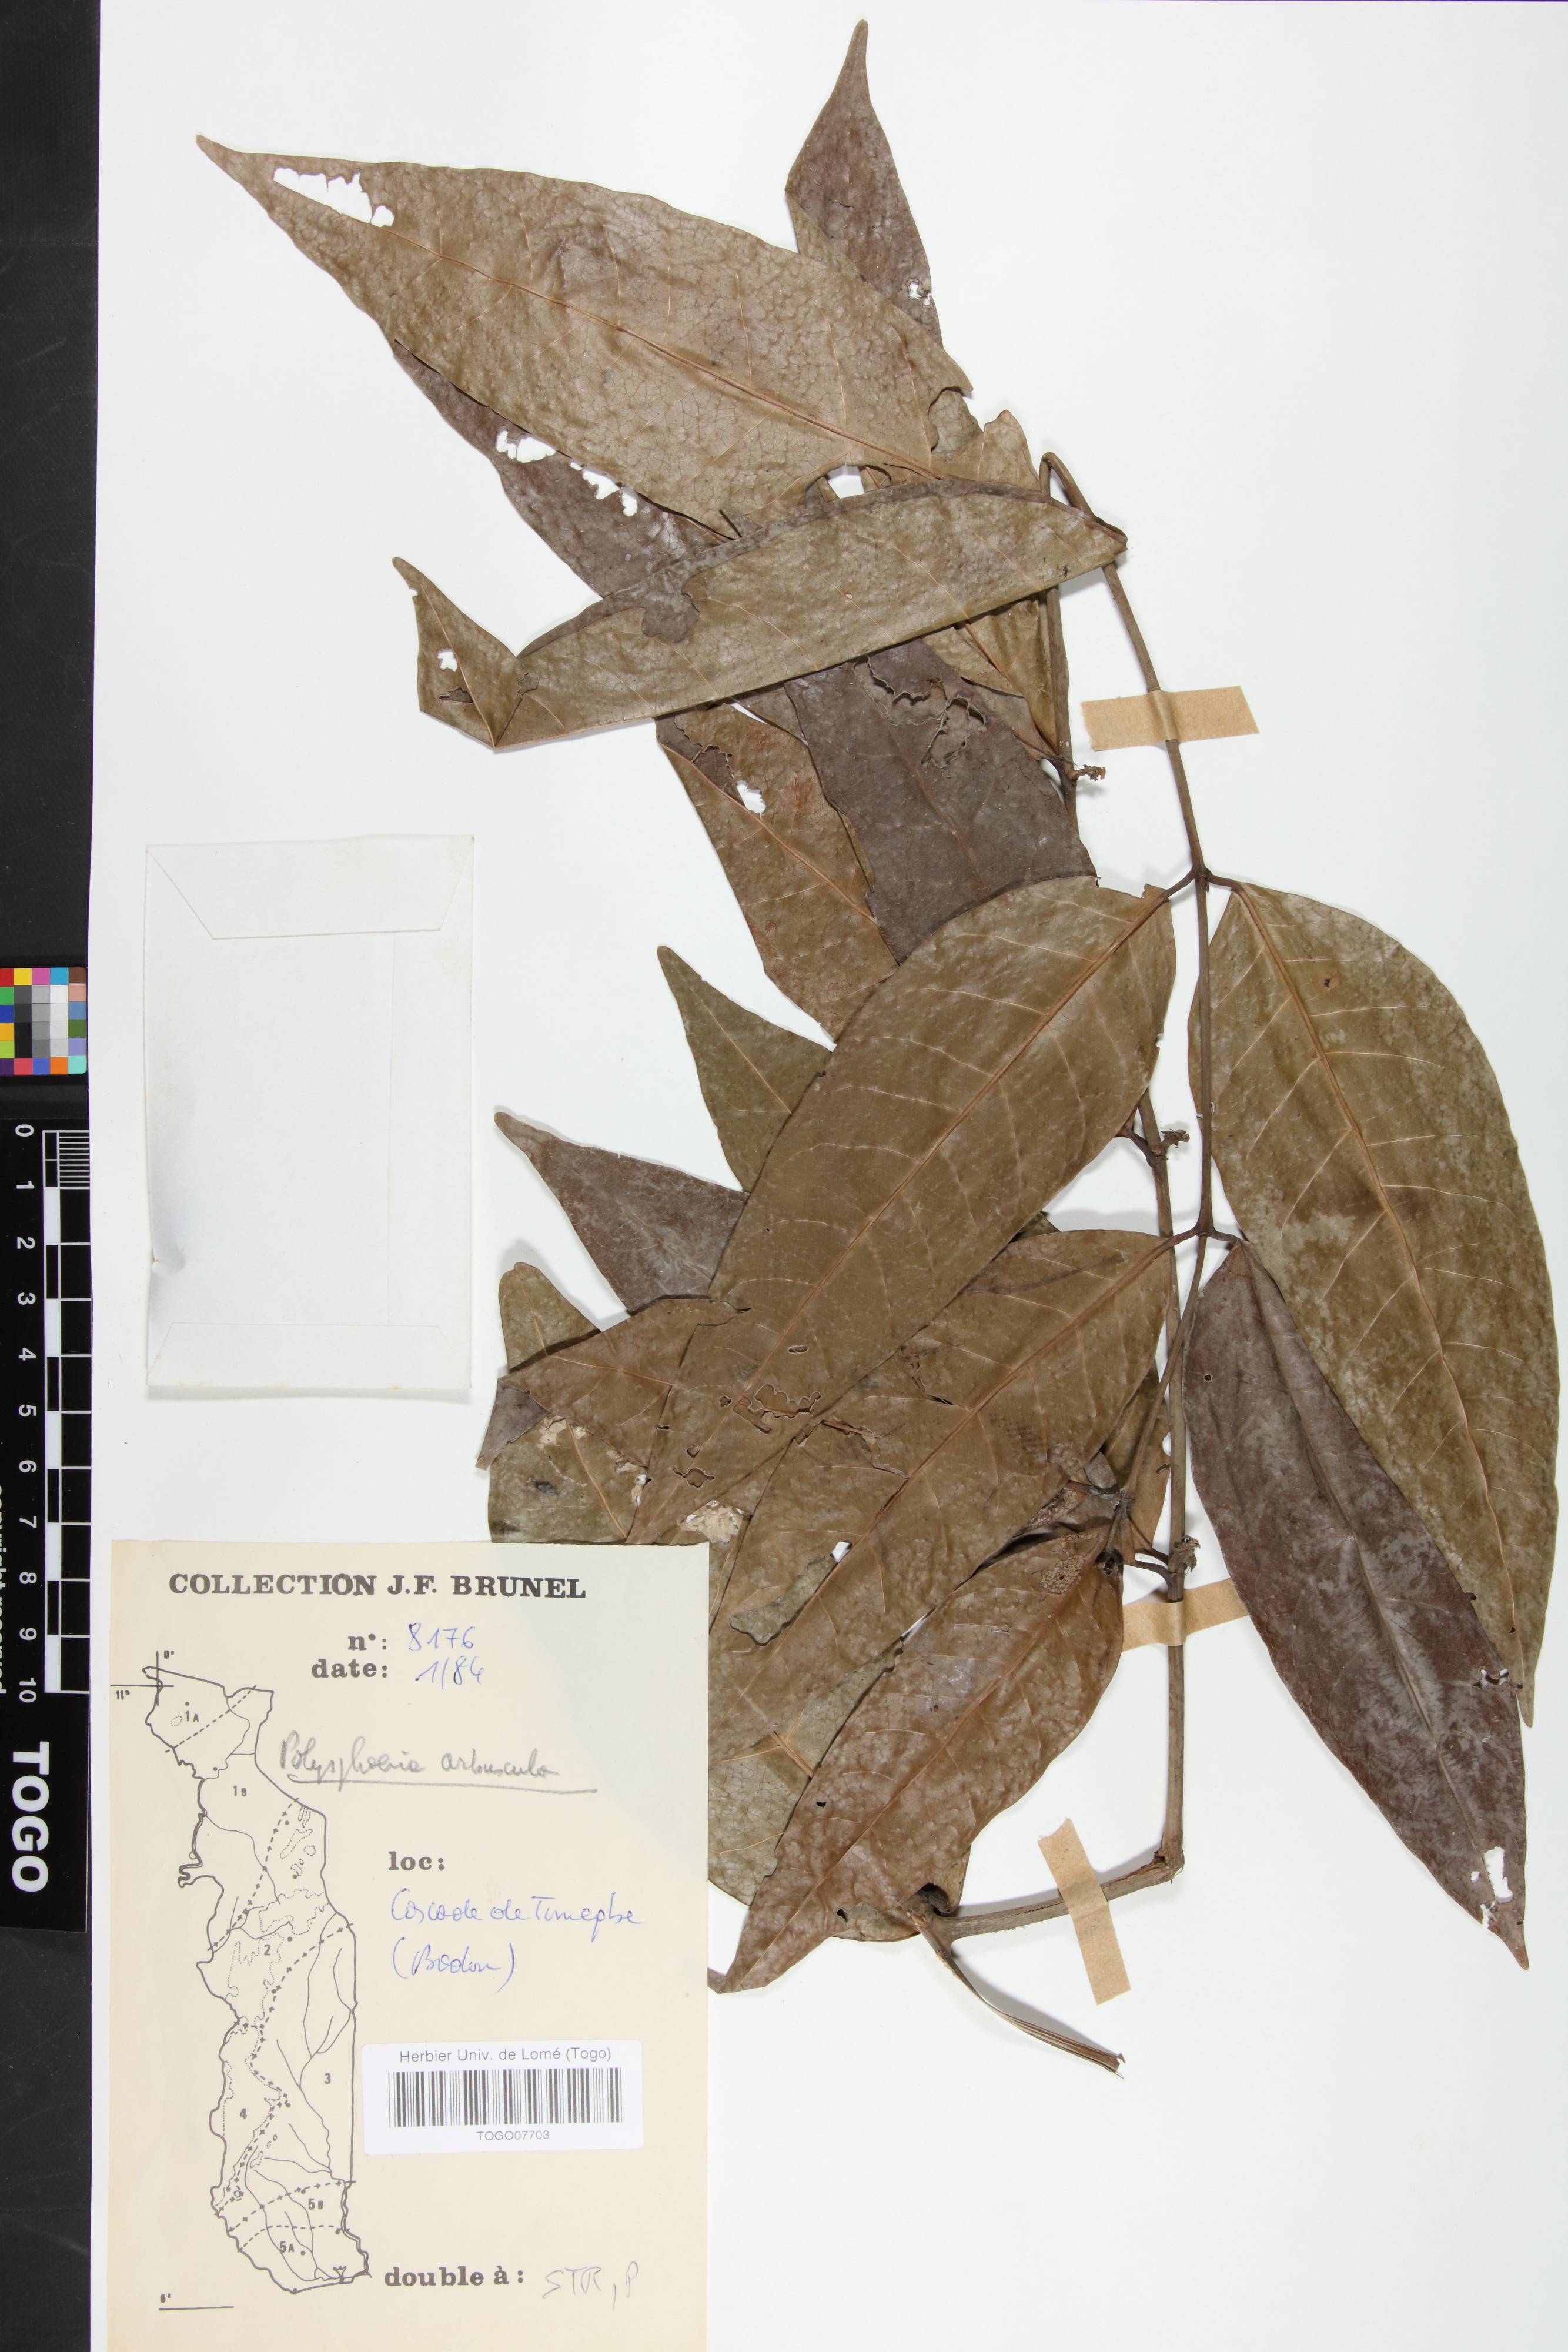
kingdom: Plantae
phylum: Tracheophyta
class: Magnoliopsida
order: Gentianales
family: Rubiaceae
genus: Polysphaeria
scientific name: Polysphaeria arbuscula
